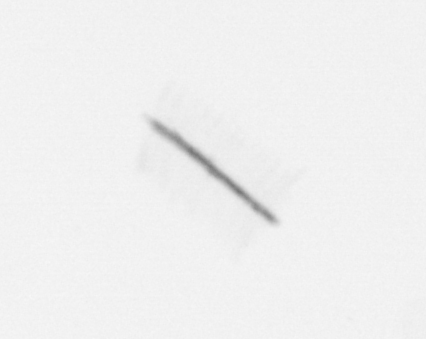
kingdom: Chromista
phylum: Ochrophyta
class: Bacillariophyceae
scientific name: Bacillariophyceae
